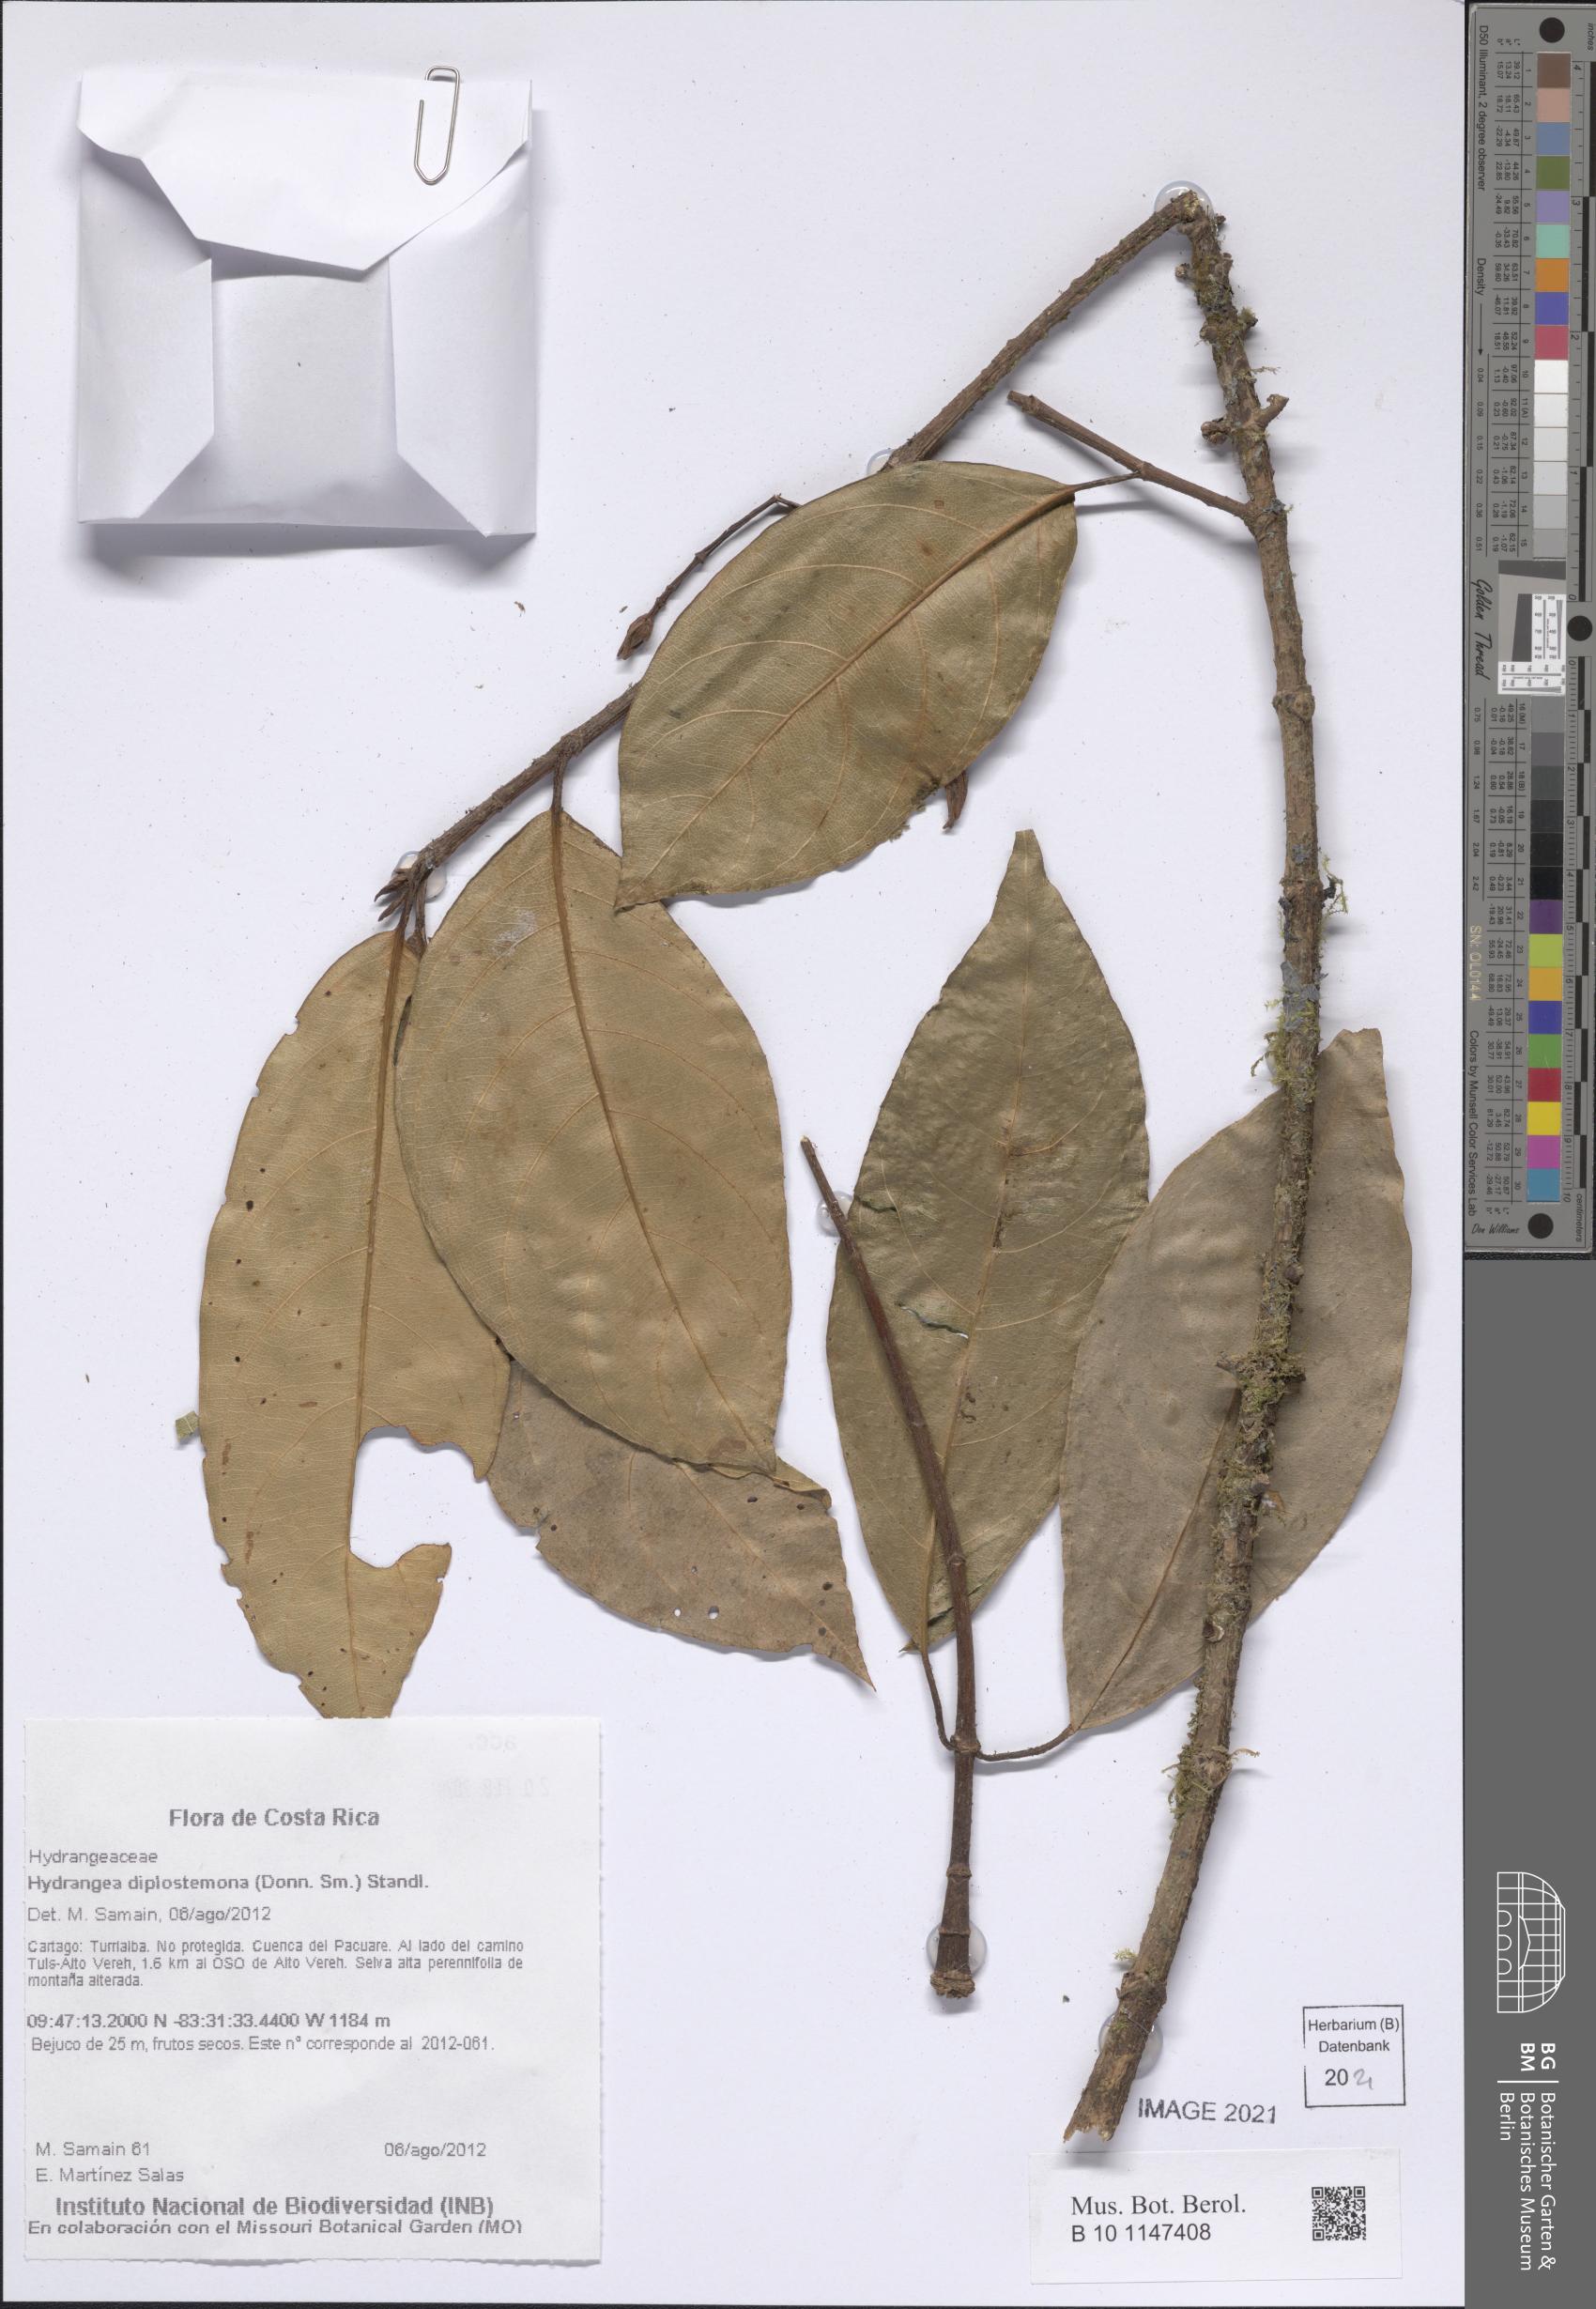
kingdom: Plantae
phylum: Tracheophyta
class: Magnoliopsida
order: Cornales
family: Hydrangeaceae
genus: Hydrangea
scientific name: Hydrangea diplostemona
